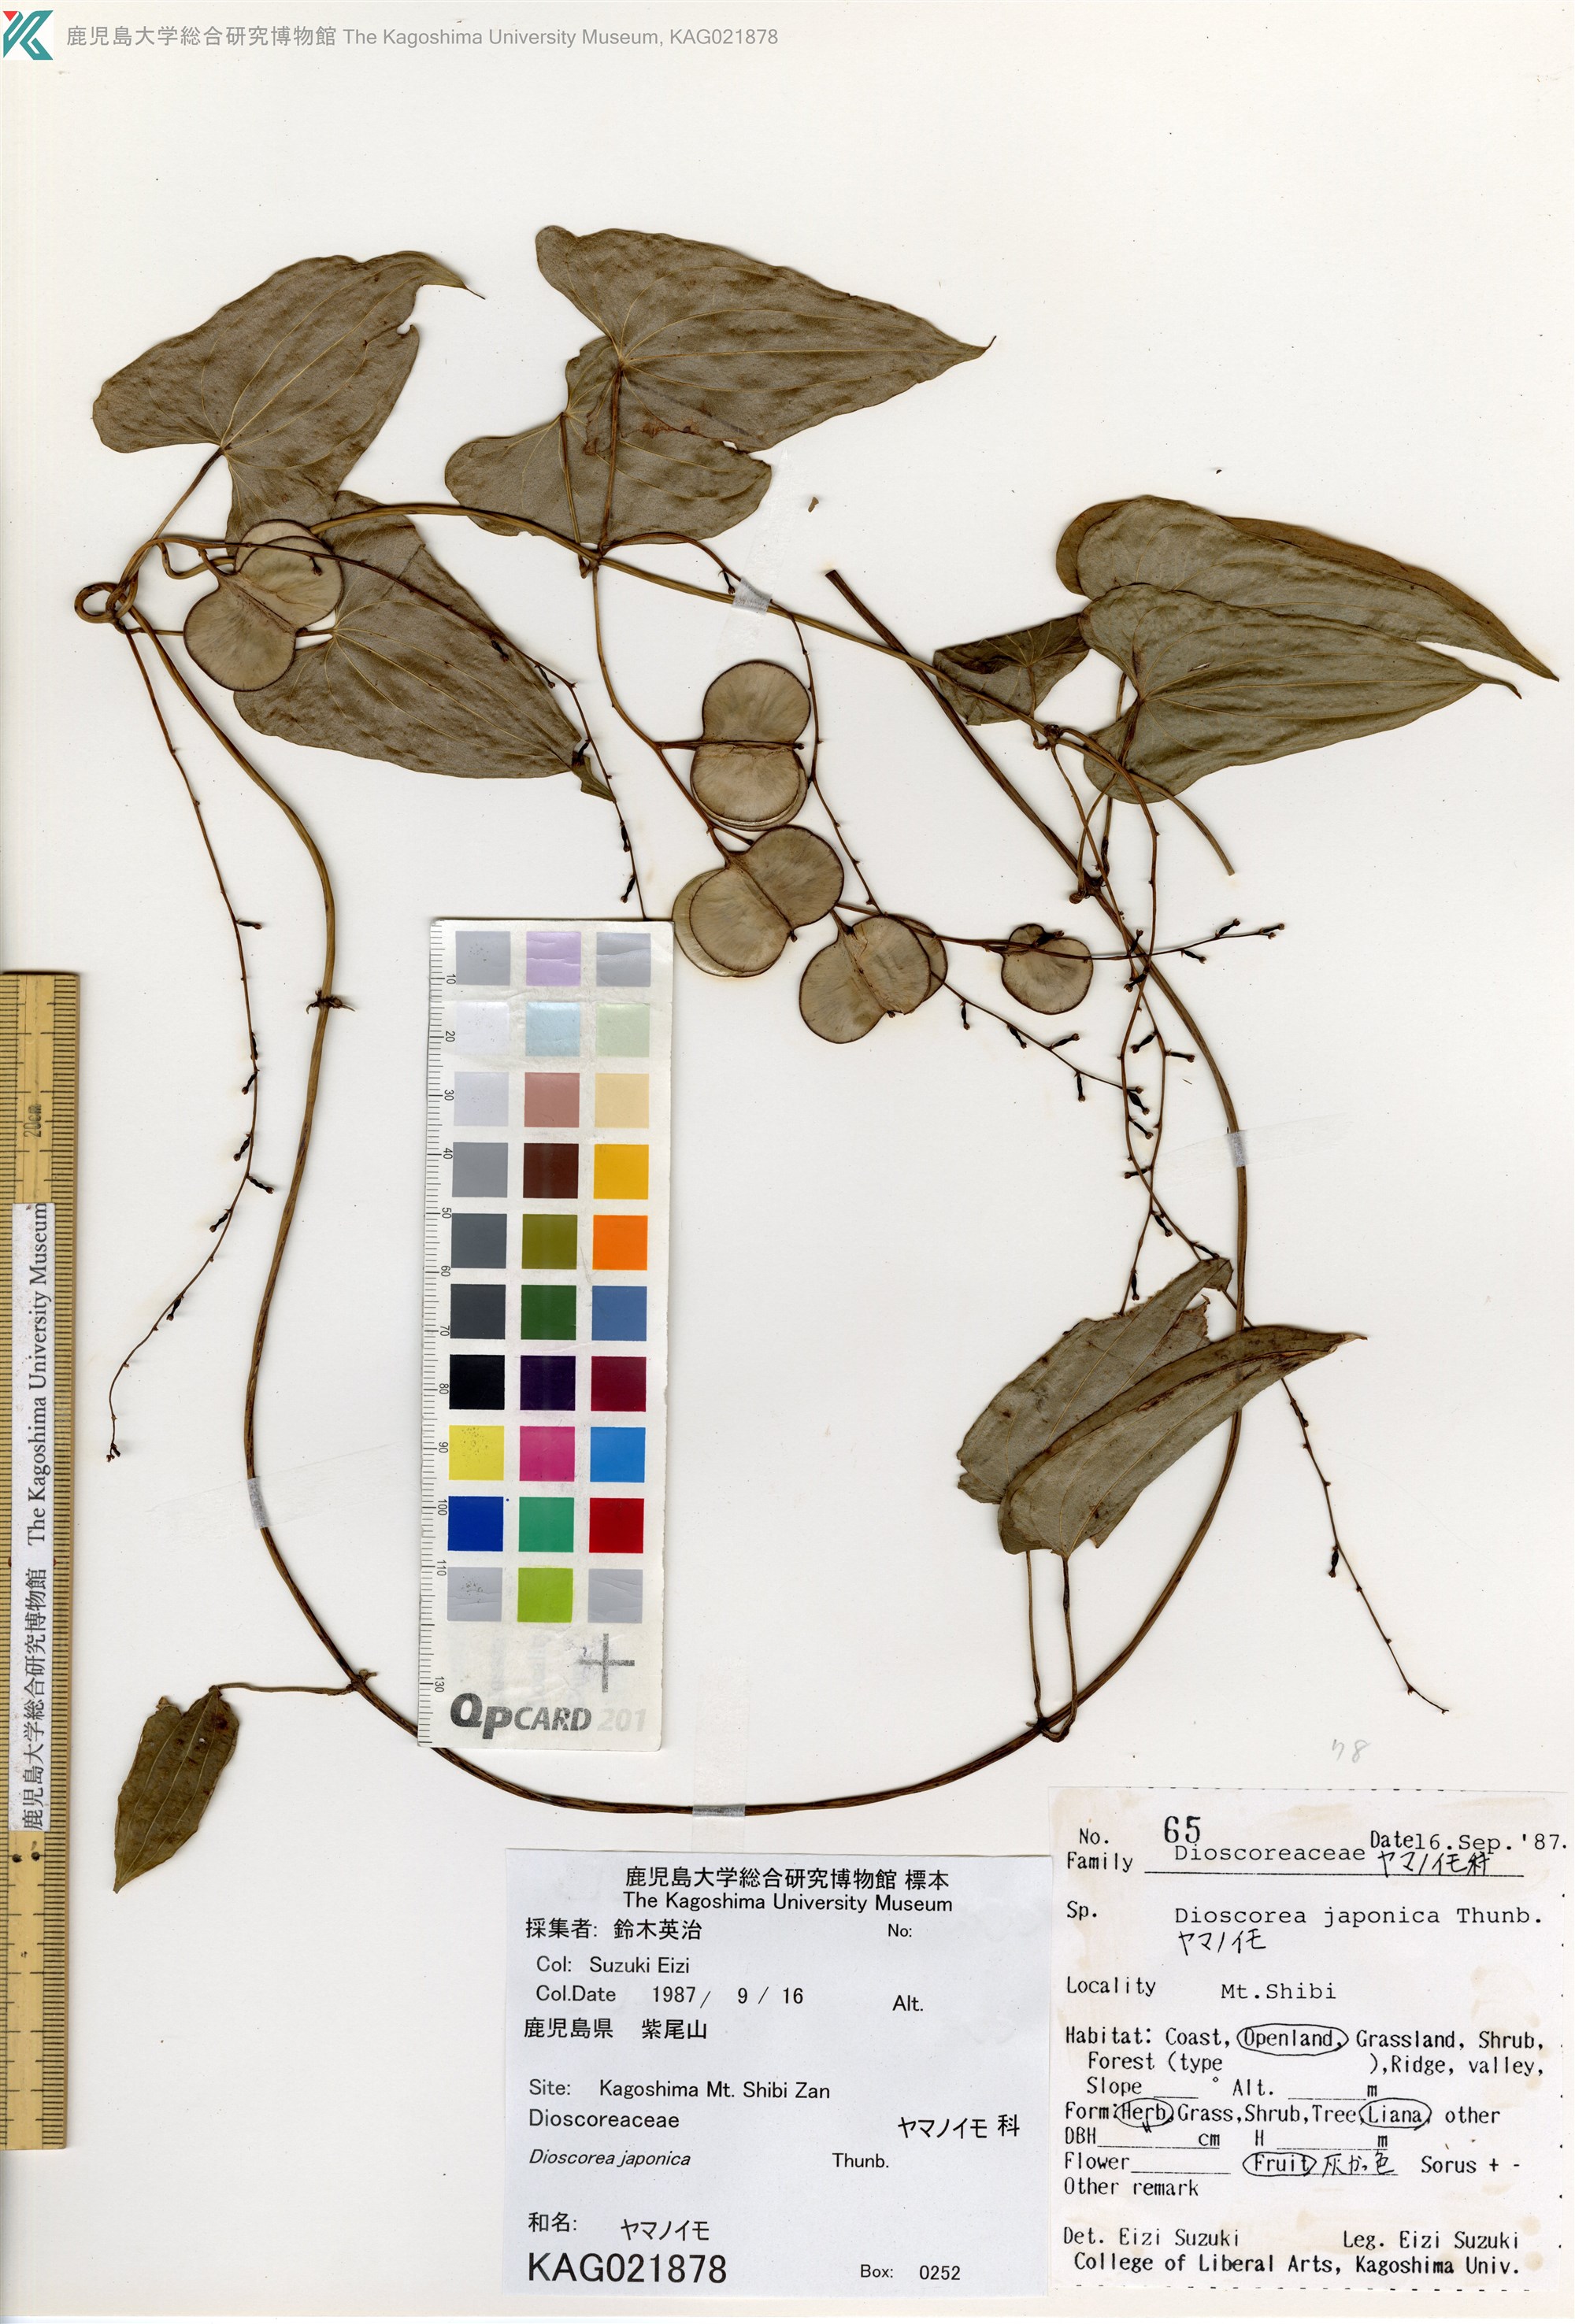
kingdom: Plantae
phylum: Tracheophyta
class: Liliopsida
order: Dioscoreales
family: Dioscoreaceae
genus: Dioscorea
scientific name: Dioscorea japonica
